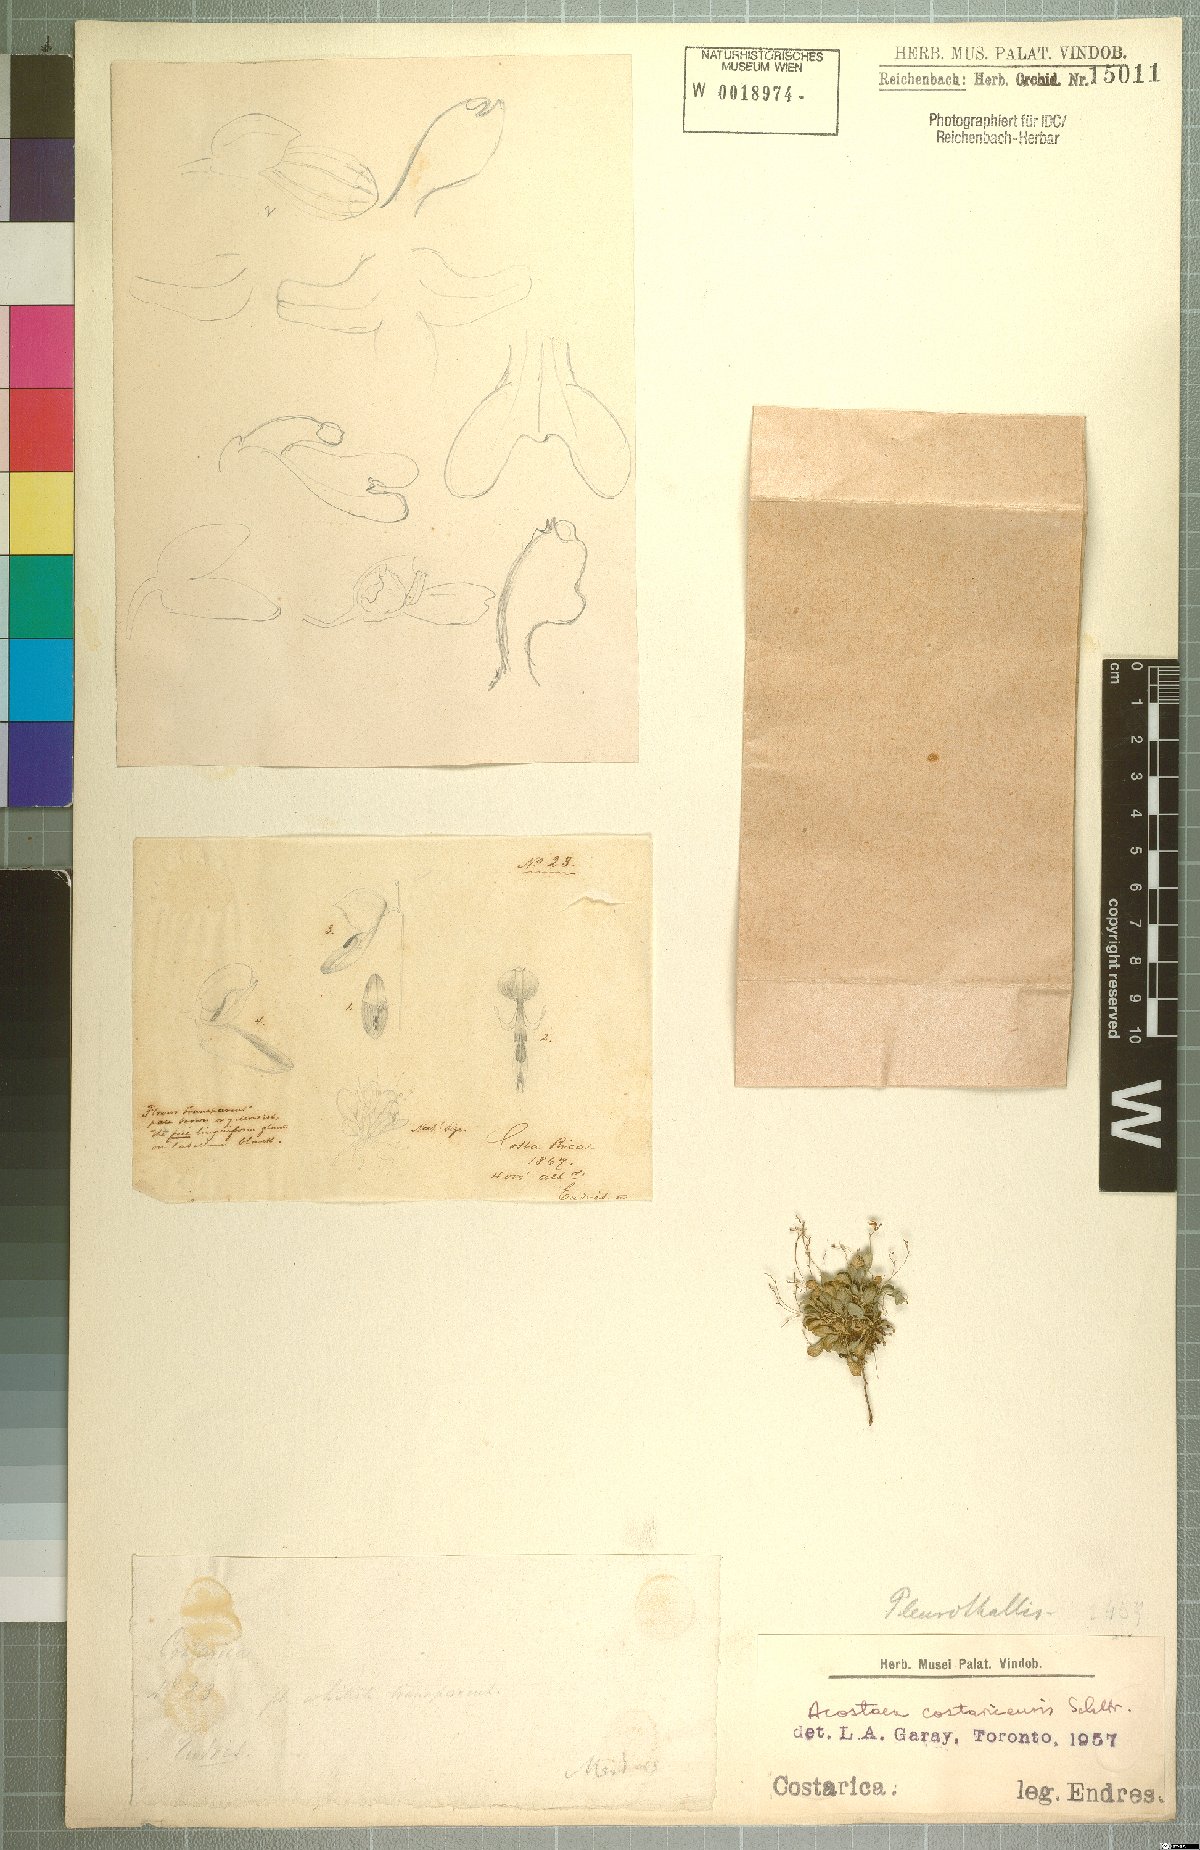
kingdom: Plantae
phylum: Tracheophyta
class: Liliopsida
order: Asparagales
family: Orchidaceae
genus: Specklinia
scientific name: Specklinia colombiana
